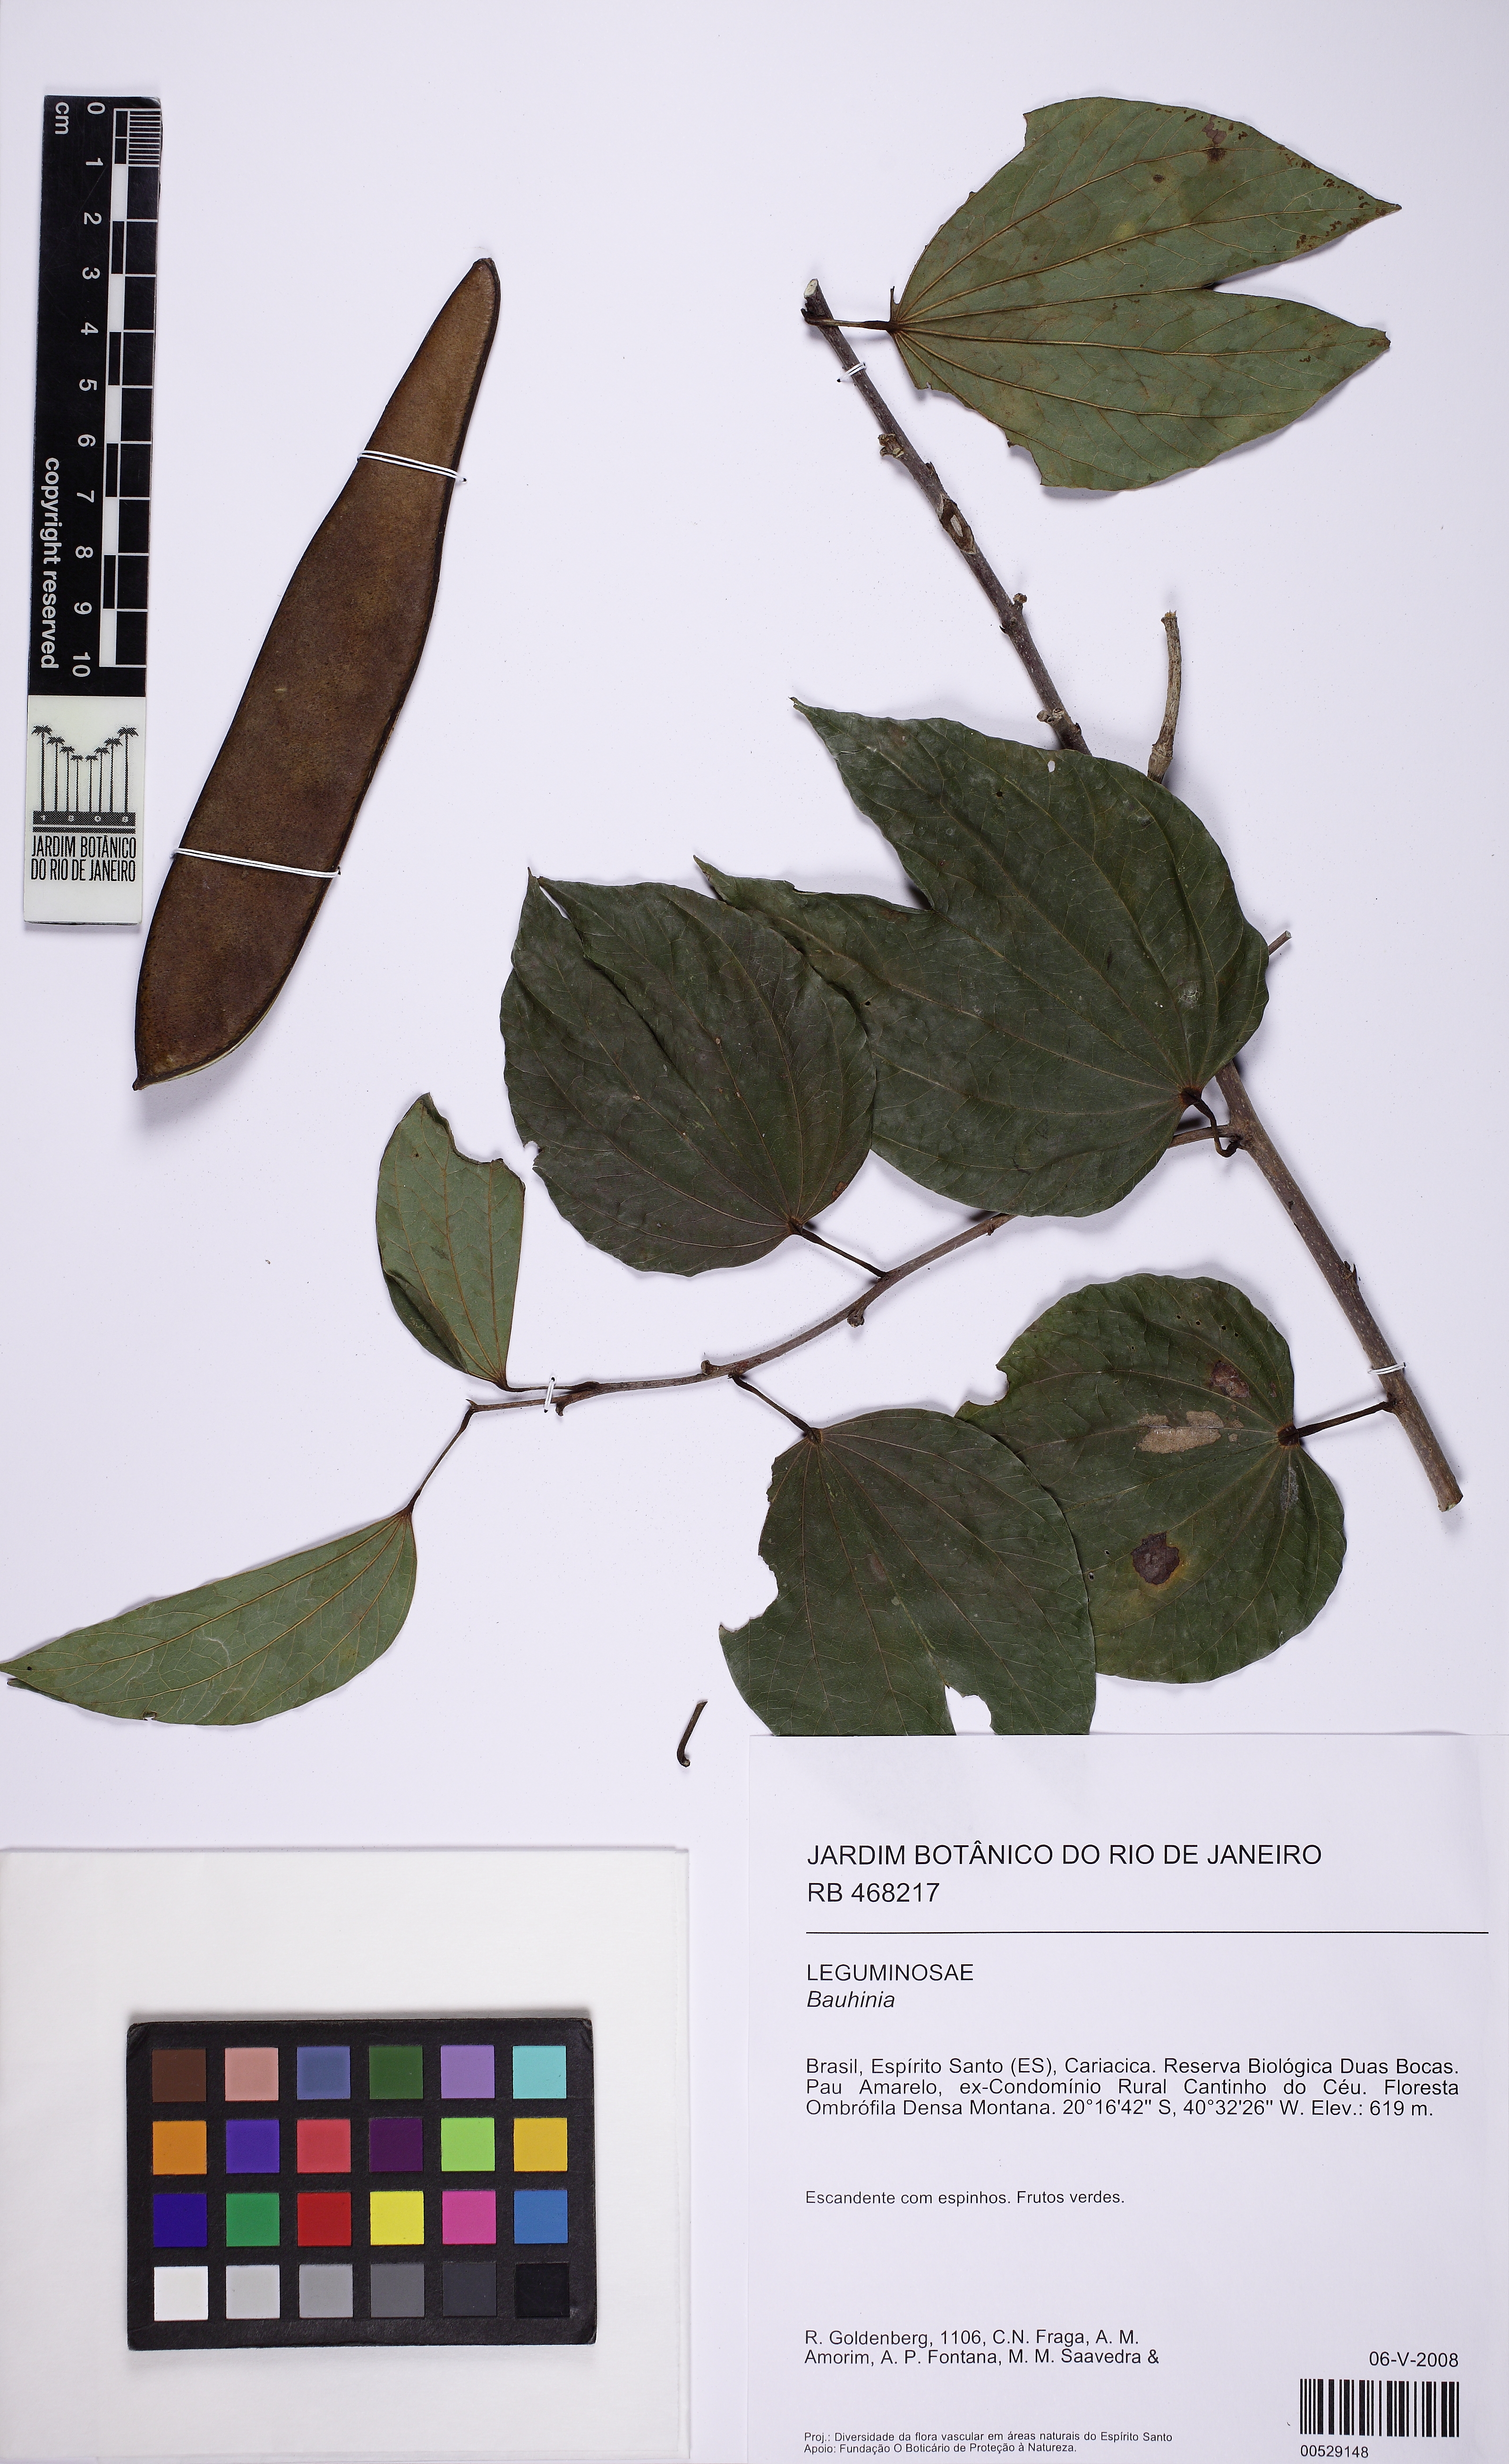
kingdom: Plantae
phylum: Tracheophyta
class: Magnoliopsida
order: Fabales
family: Fabaceae
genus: Bauhinia
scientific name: Bauhinia
